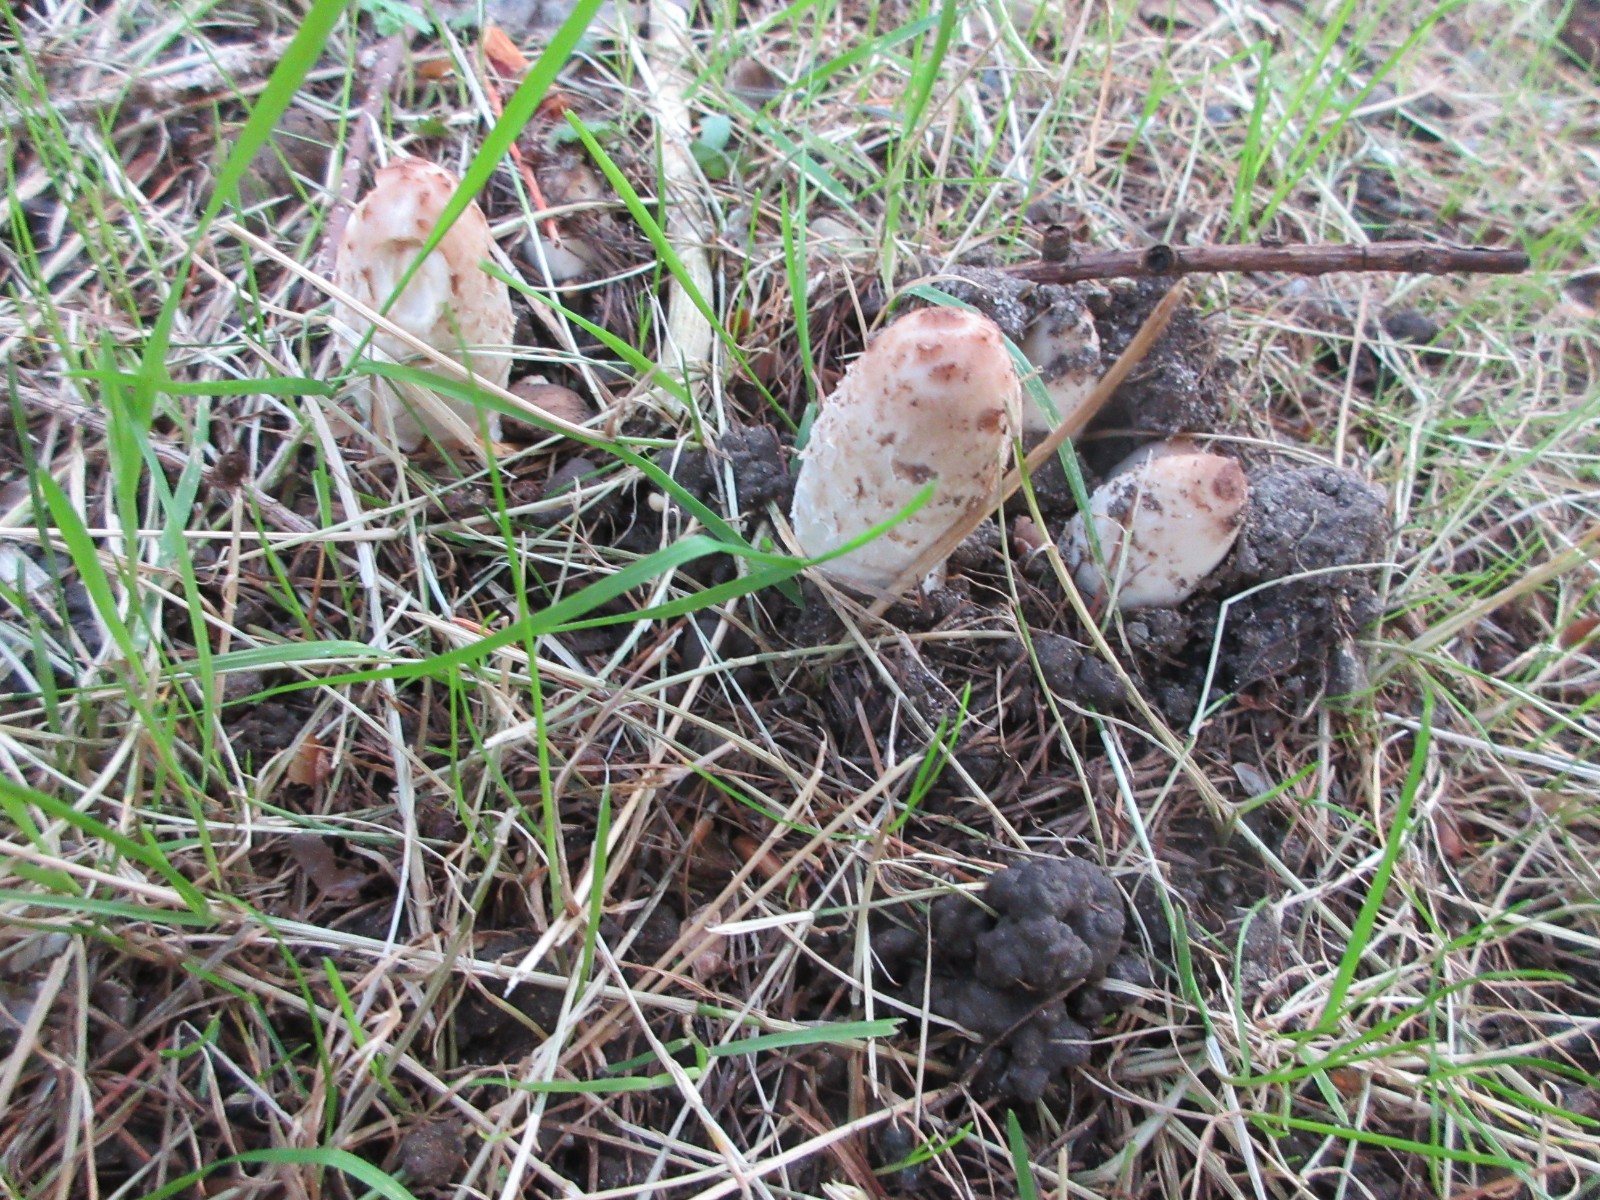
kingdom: Fungi
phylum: Basidiomycota
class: Agaricomycetes
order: Agaricales
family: Agaricaceae
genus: Coprinus
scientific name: Coprinus comatus
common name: stor parykhat
